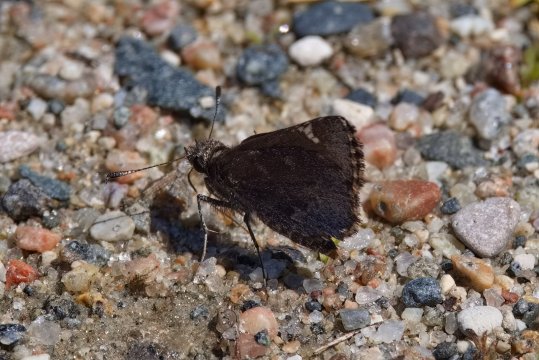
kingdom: Animalia
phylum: Arthropoda
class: Insecta
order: Lepidoptera
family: Hesperiidae
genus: Mastor
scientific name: Mastor vialis
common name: Common Roadside-Skipper
